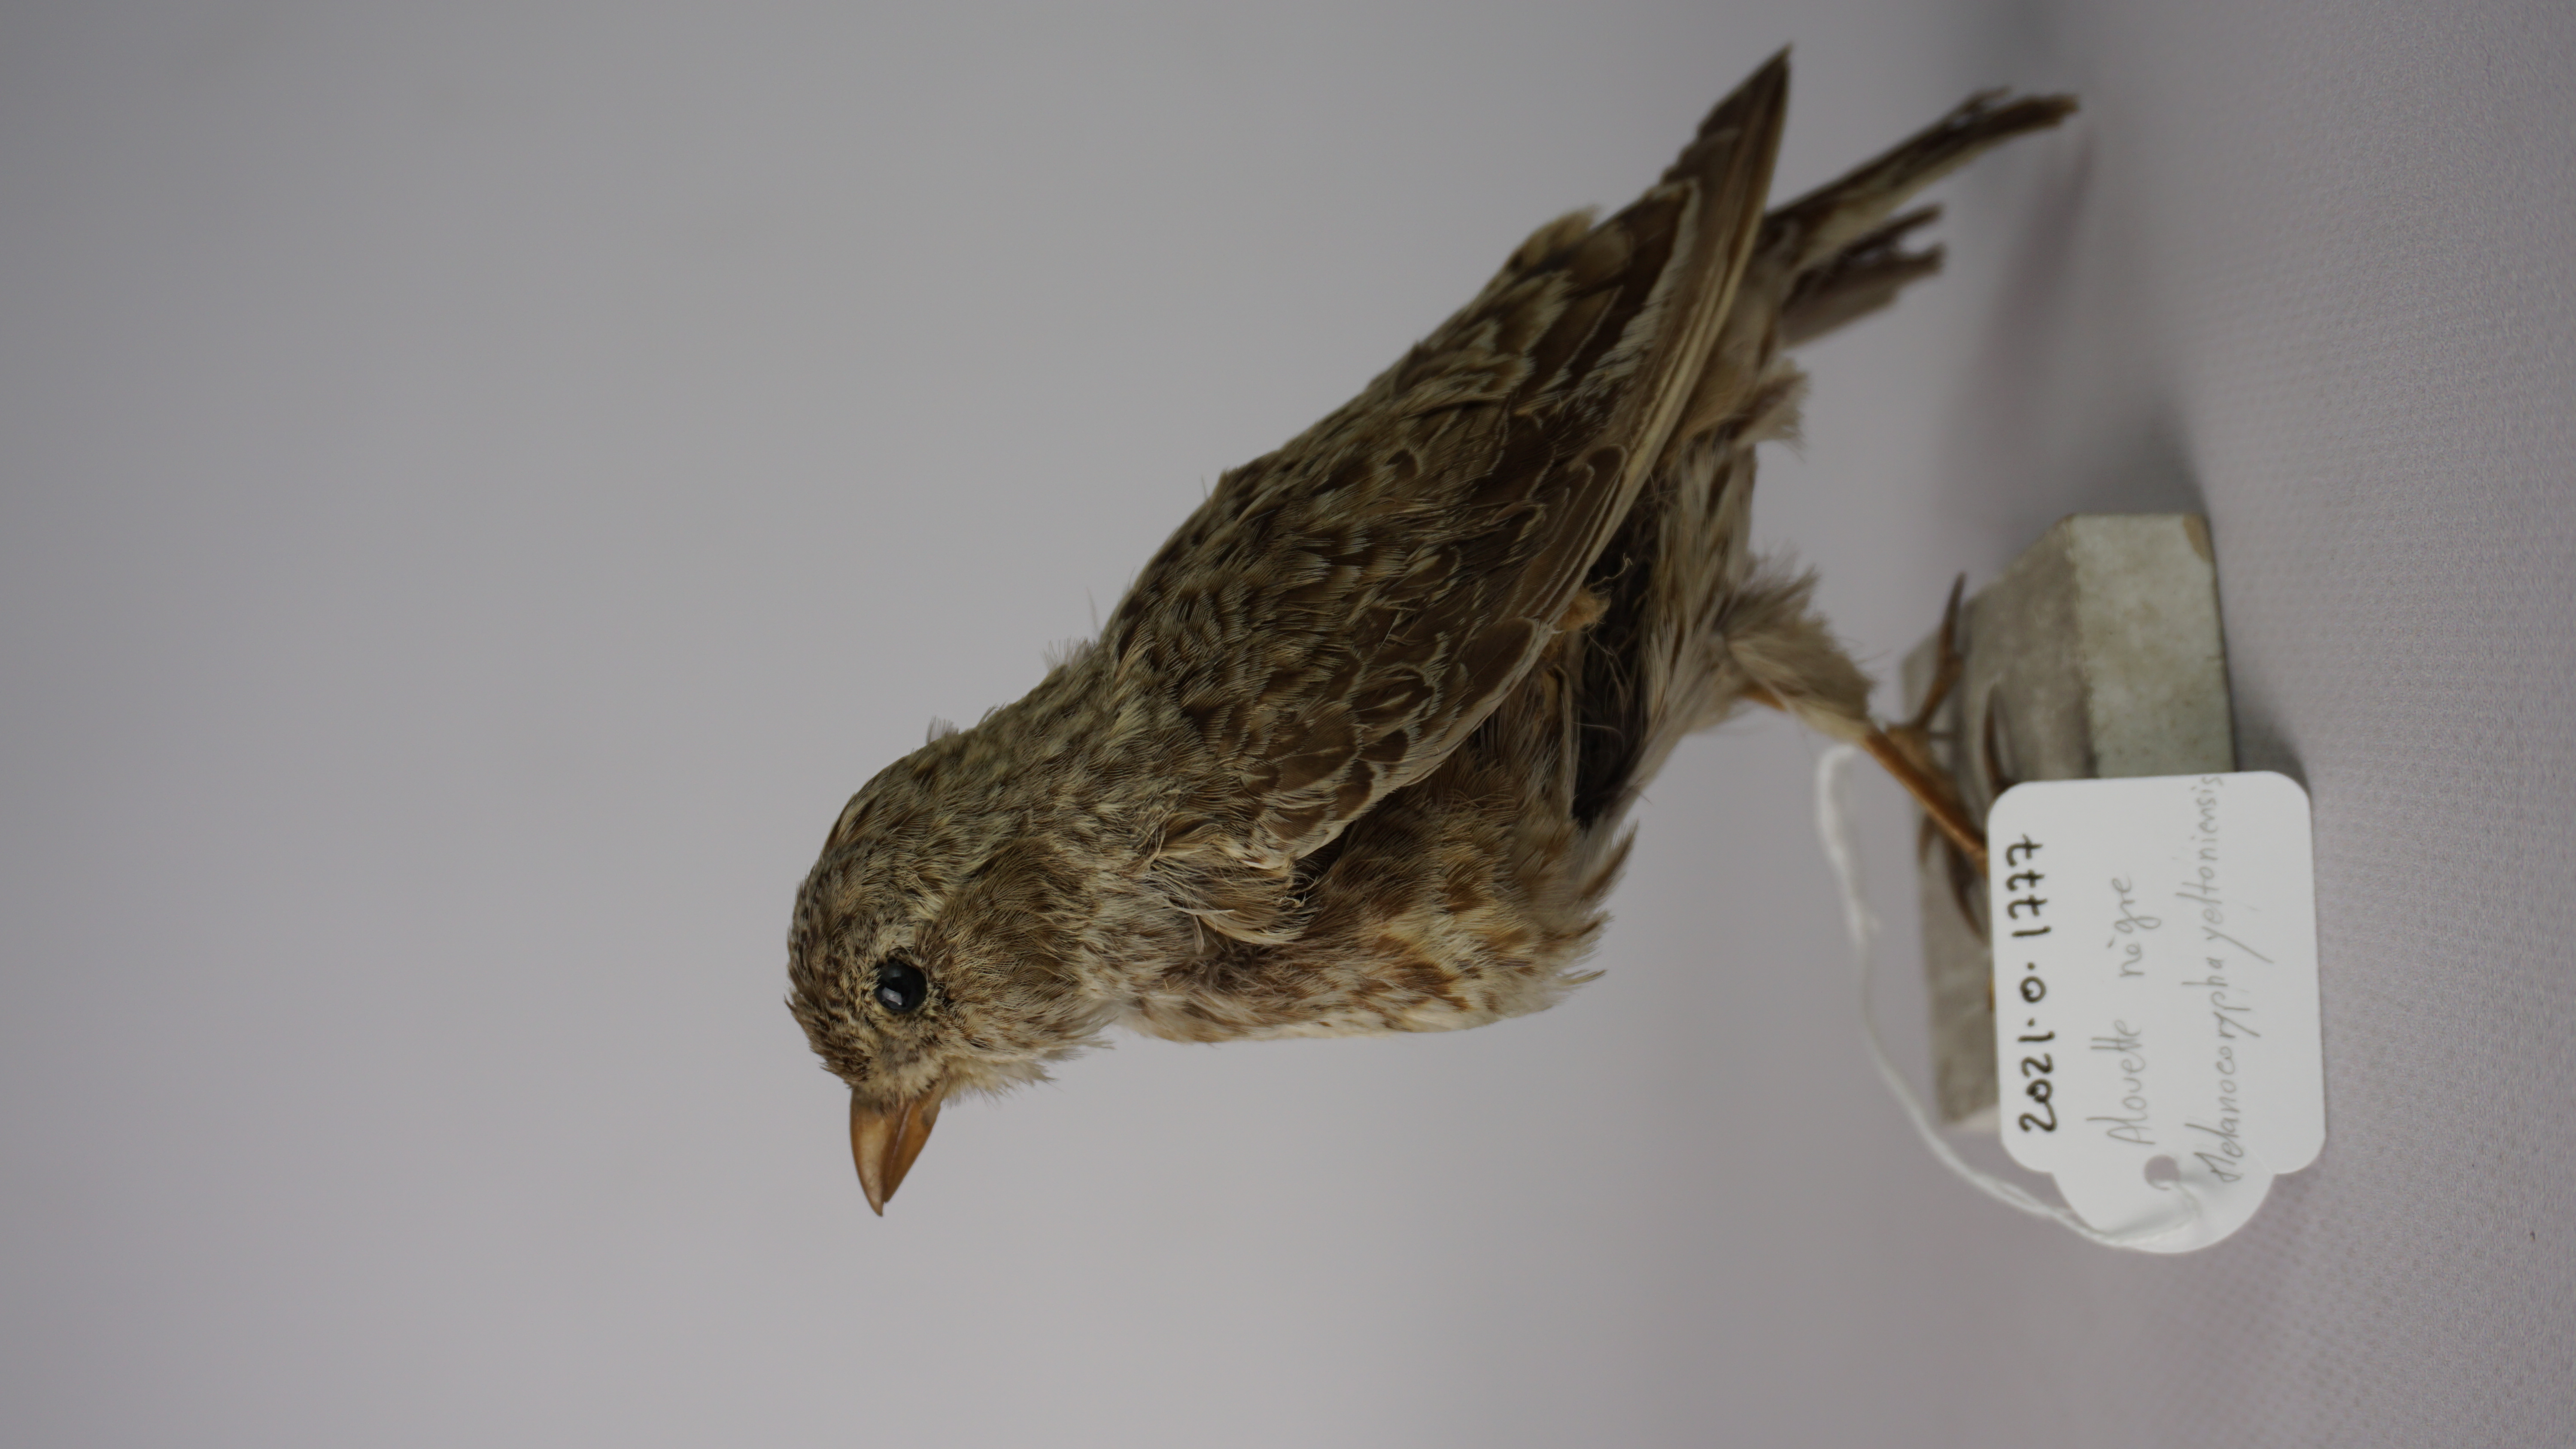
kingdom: Animalia
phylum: Chordata
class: Aves
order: Passeriformes
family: Alaudidae
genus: Melanocorypha
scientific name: Melanocorypha yeltoniensis
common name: Black lark
